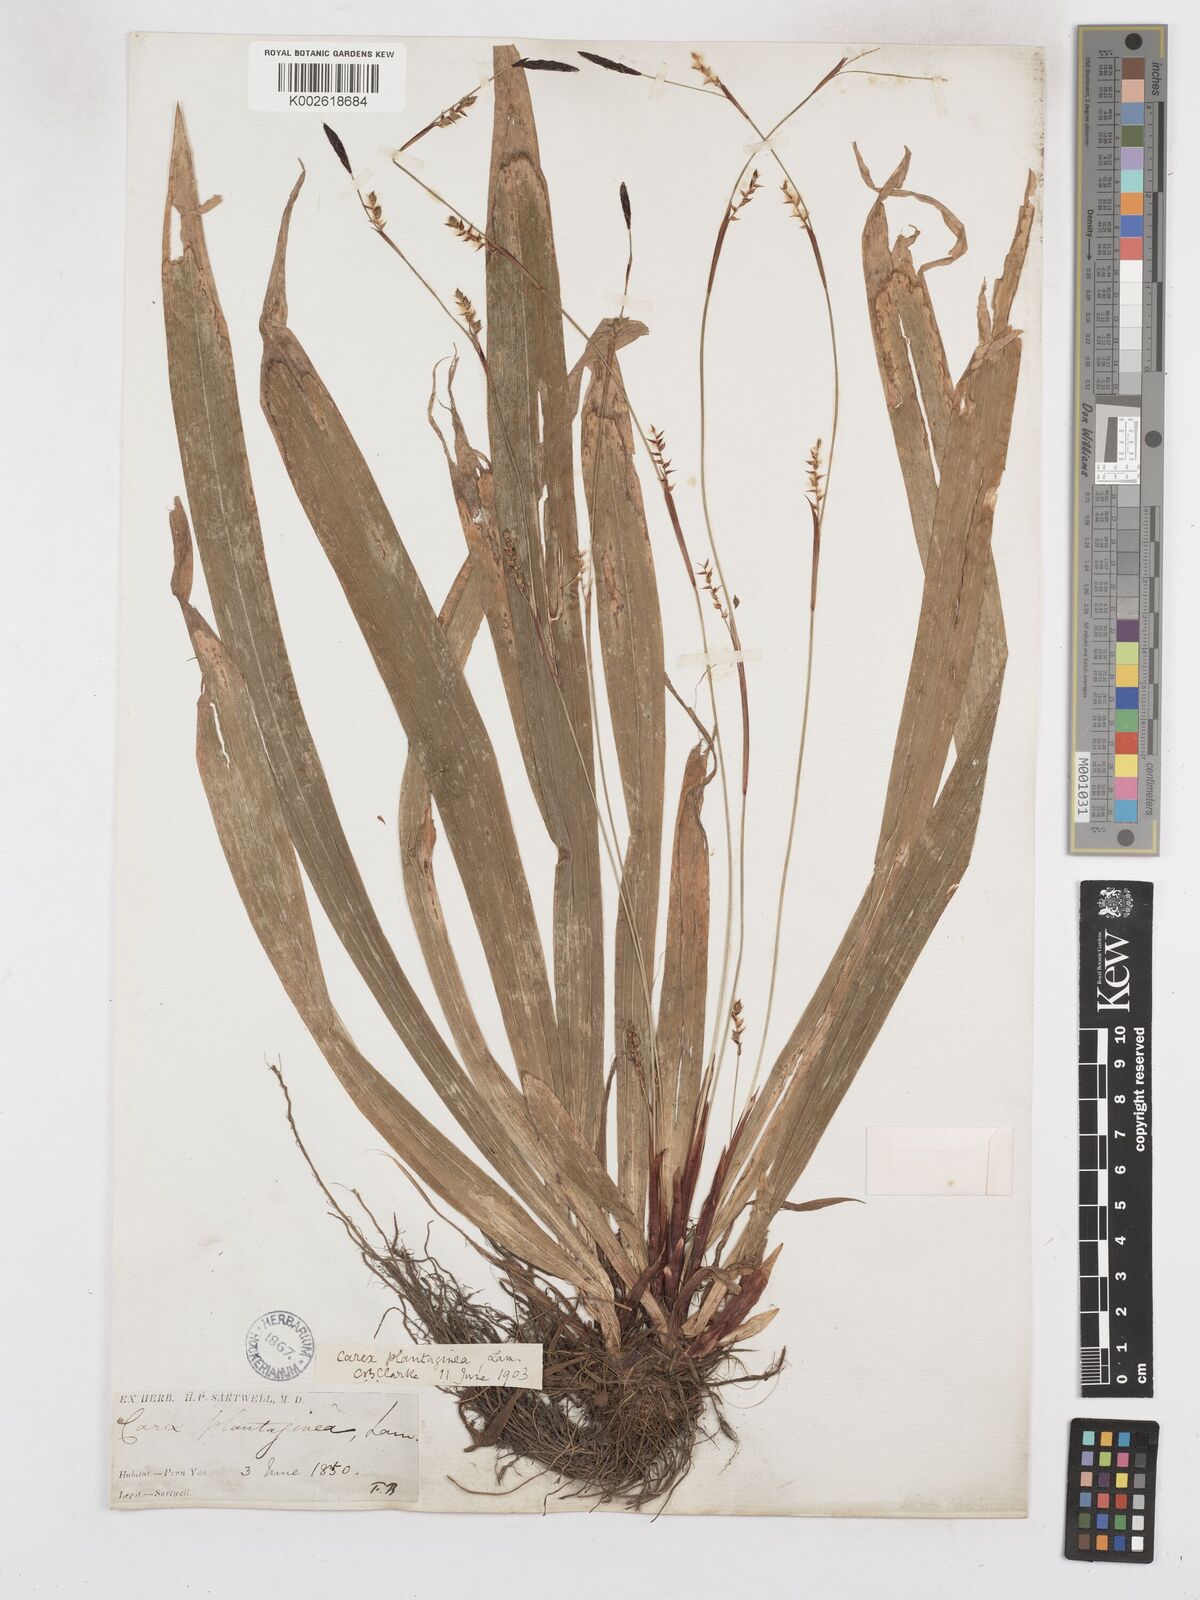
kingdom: Plantae
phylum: Tracheophyta
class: Liliopsida
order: Poales
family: Cyperaceae
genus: Carex
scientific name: Carex plantaginea
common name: Plantain-leaved sedge
